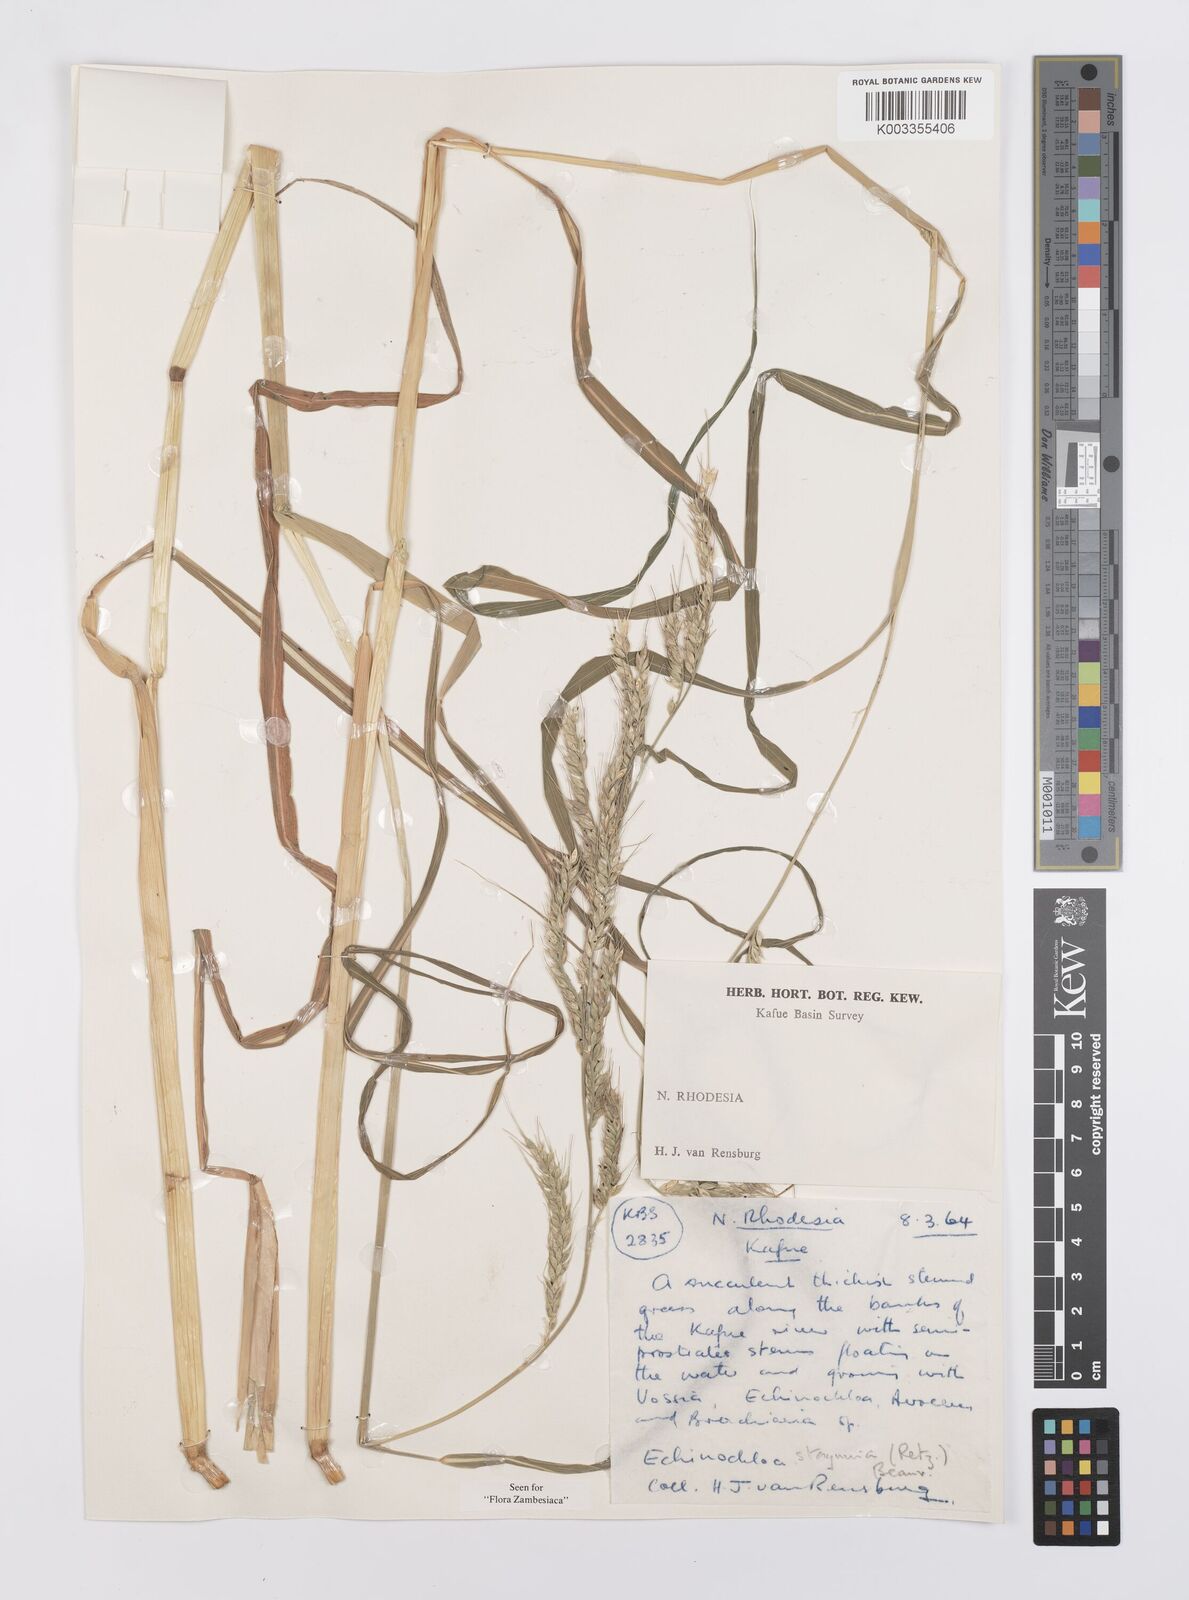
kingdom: Plantae
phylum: Tracheophyta
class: Liliopsida
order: Poales
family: Poaceae
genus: Echinochloa
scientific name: Echinochloa stagnina
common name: Burgu grass
